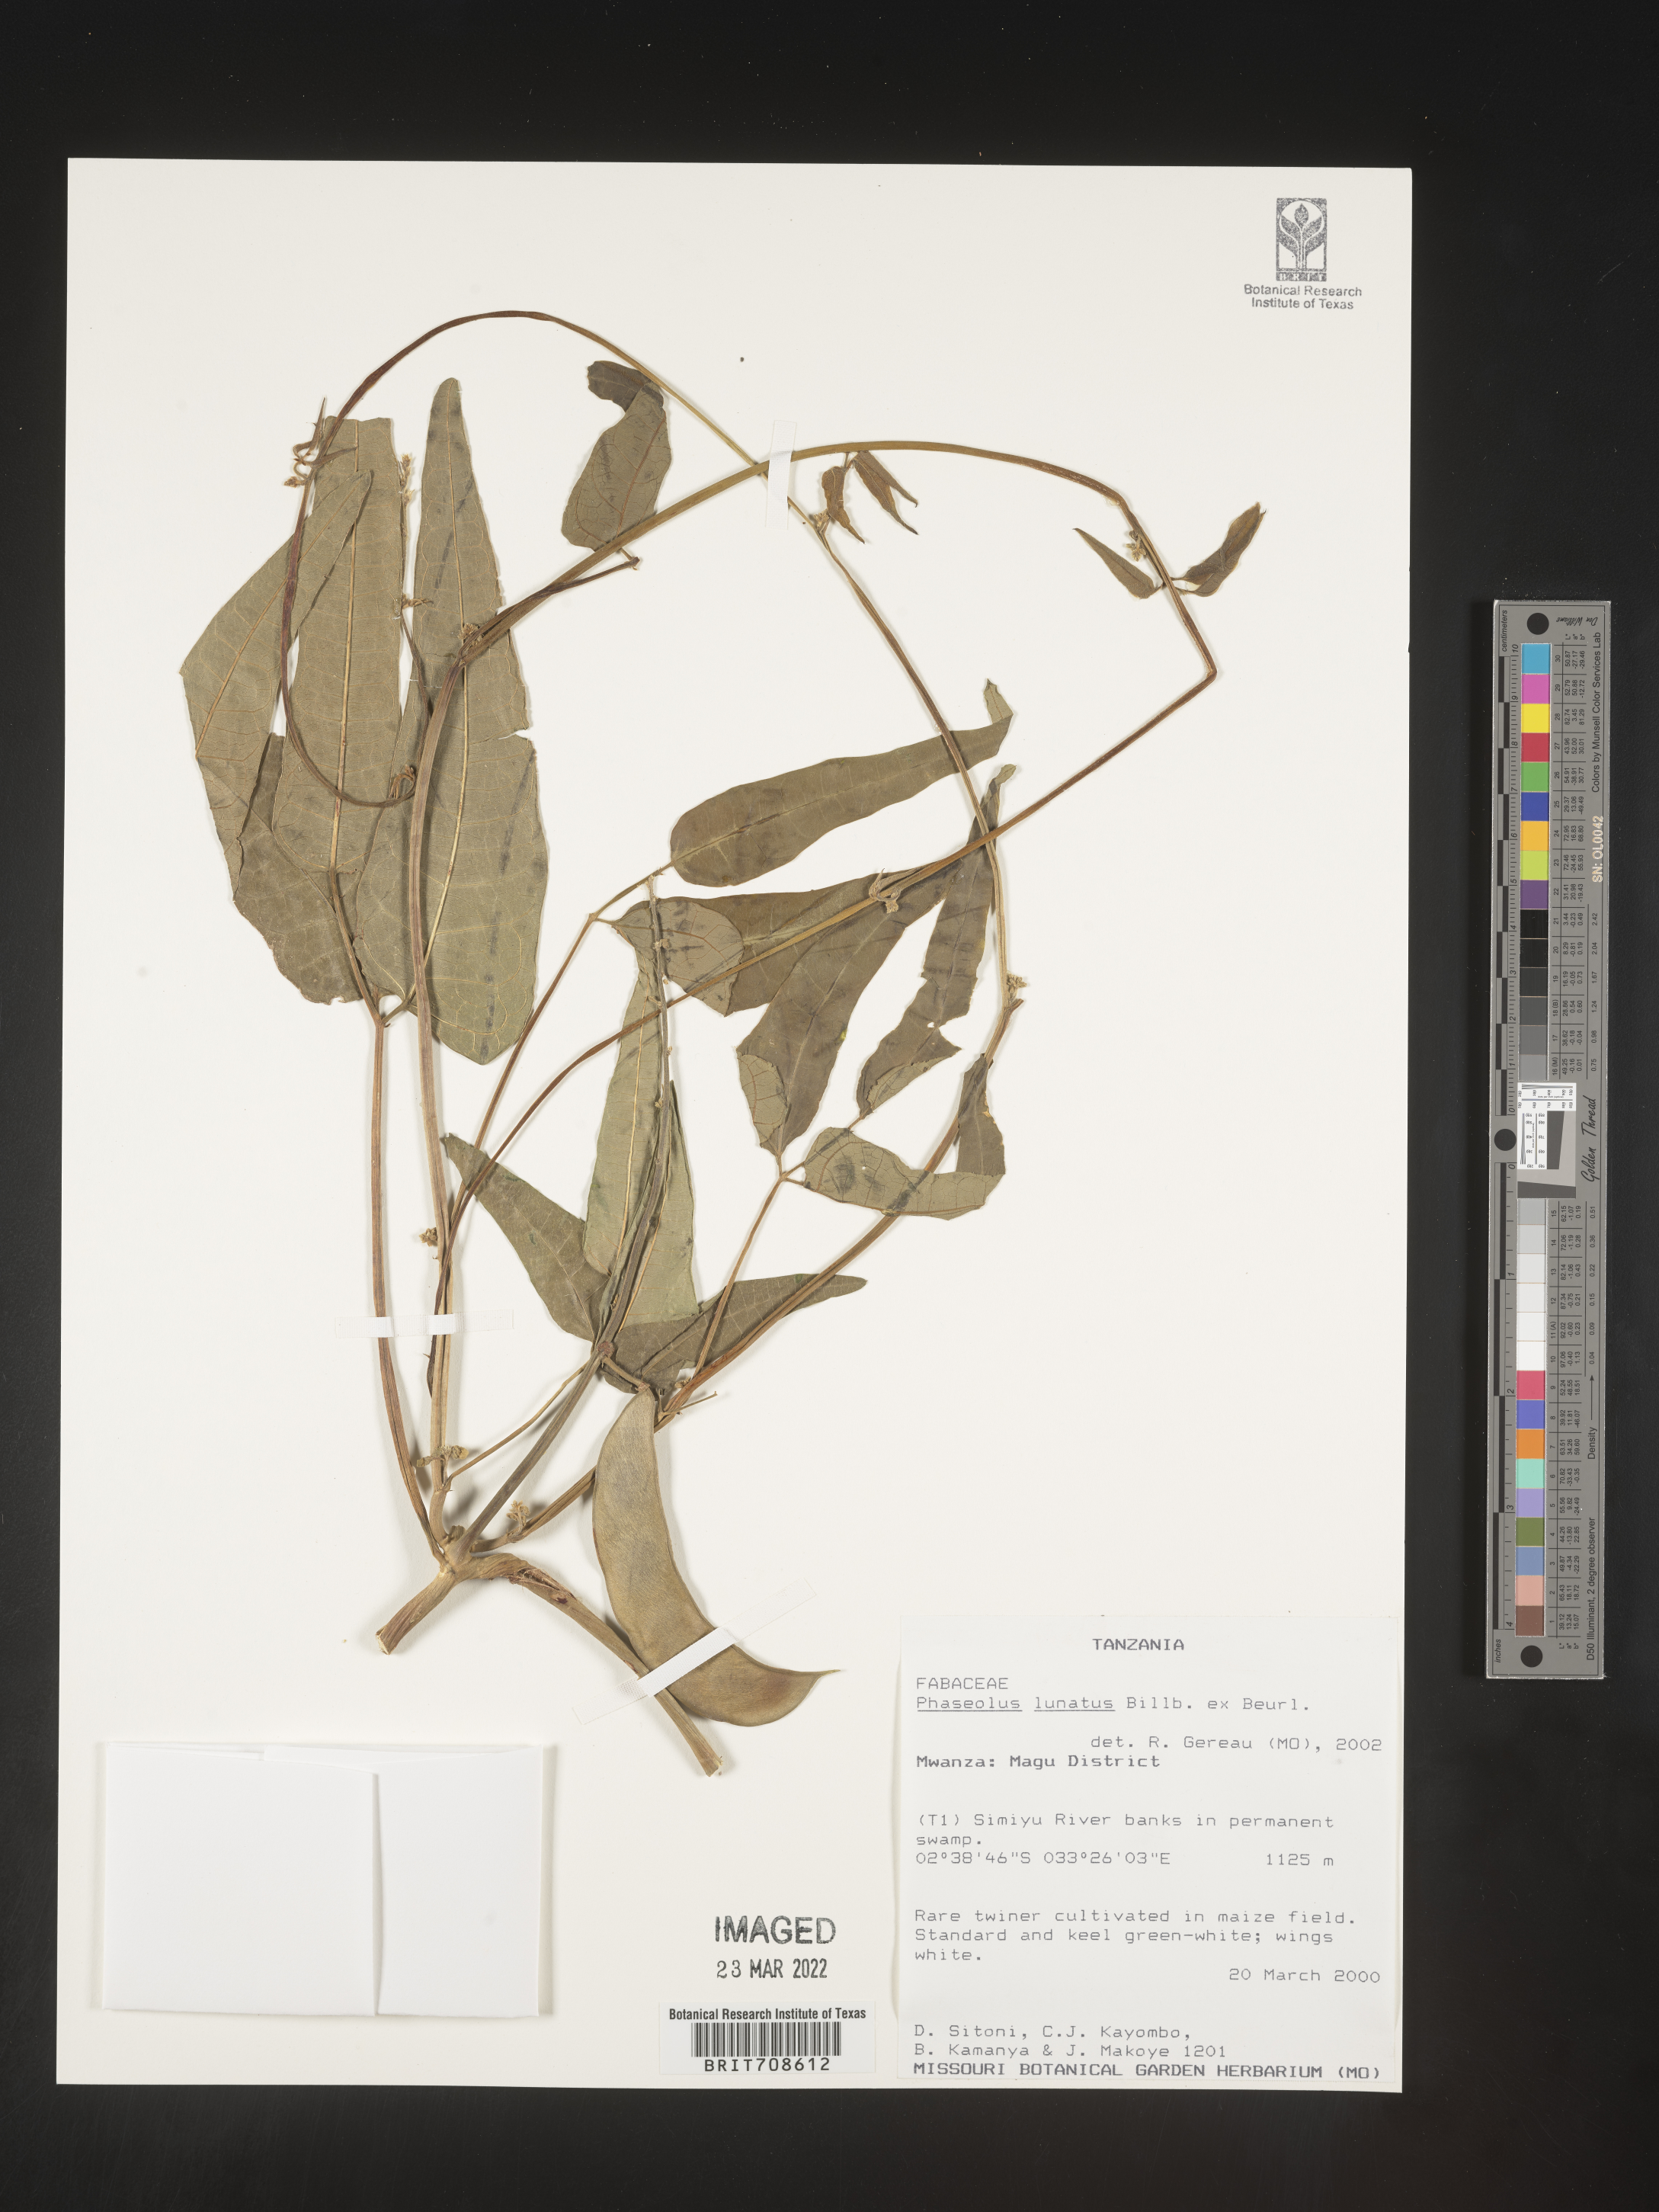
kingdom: Plantae
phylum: Tracheophyta
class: Magnoliopsida
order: Fabales
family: Fabaceae
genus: Phaseolus
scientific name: Phaseolus
